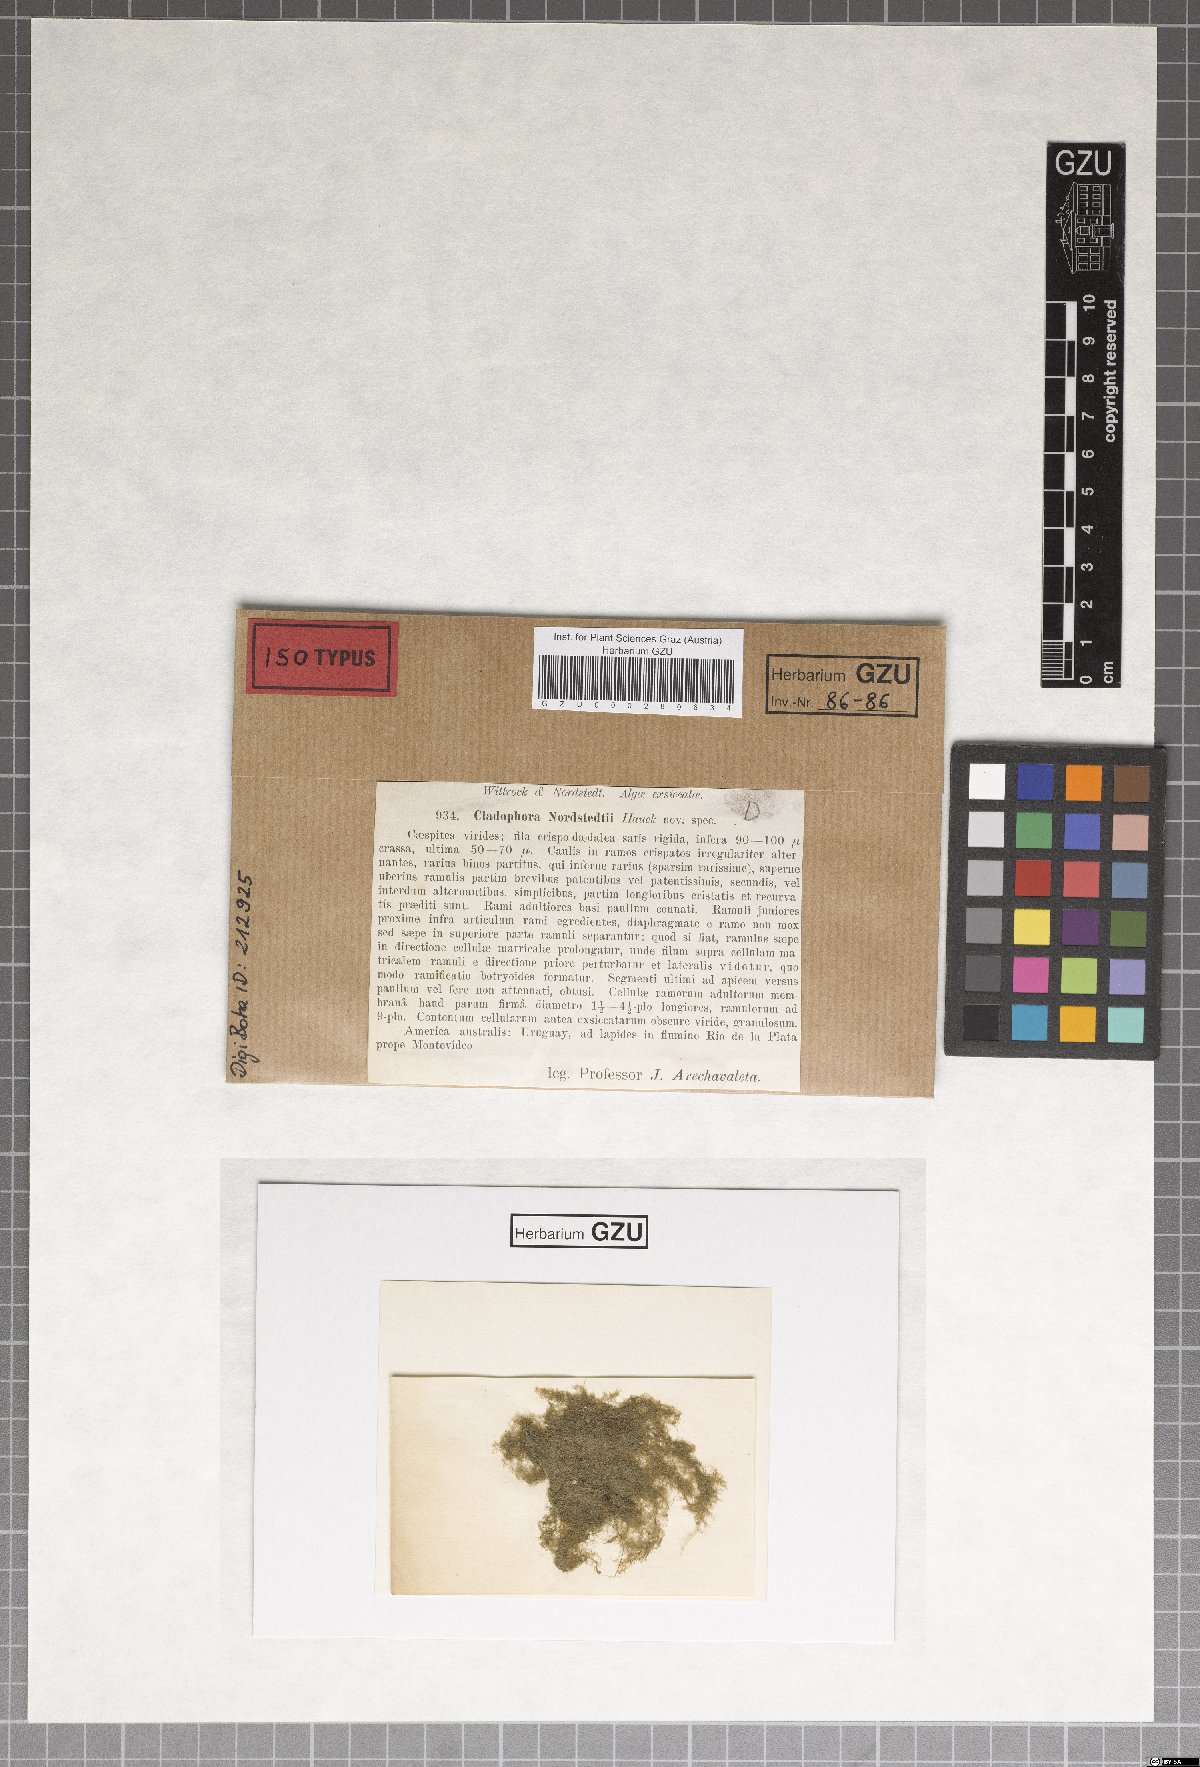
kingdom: Plantae
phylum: Chlorophyta
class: Ulvophyceae
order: Cladophorales
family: Cladophoraceae
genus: Cladophora
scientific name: Cladophora
